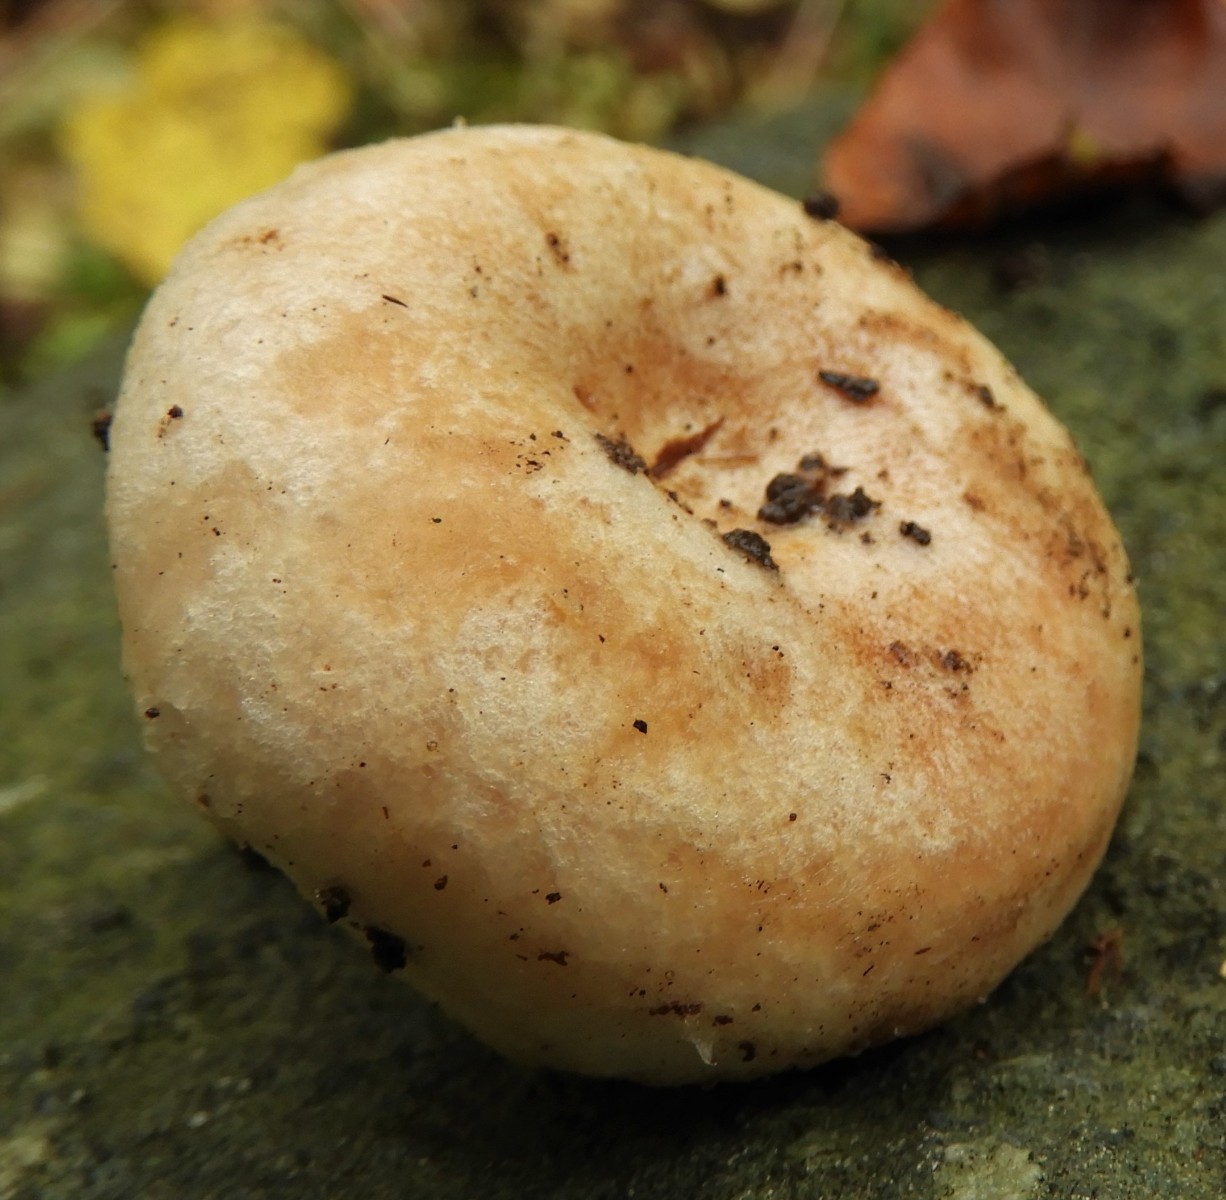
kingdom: Fungi
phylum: Basidiomycota
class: Agaricomycetes
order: Russulales
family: Russulaceae
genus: Lactarius
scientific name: Lactarius pubescens
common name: dunet mælkehat
